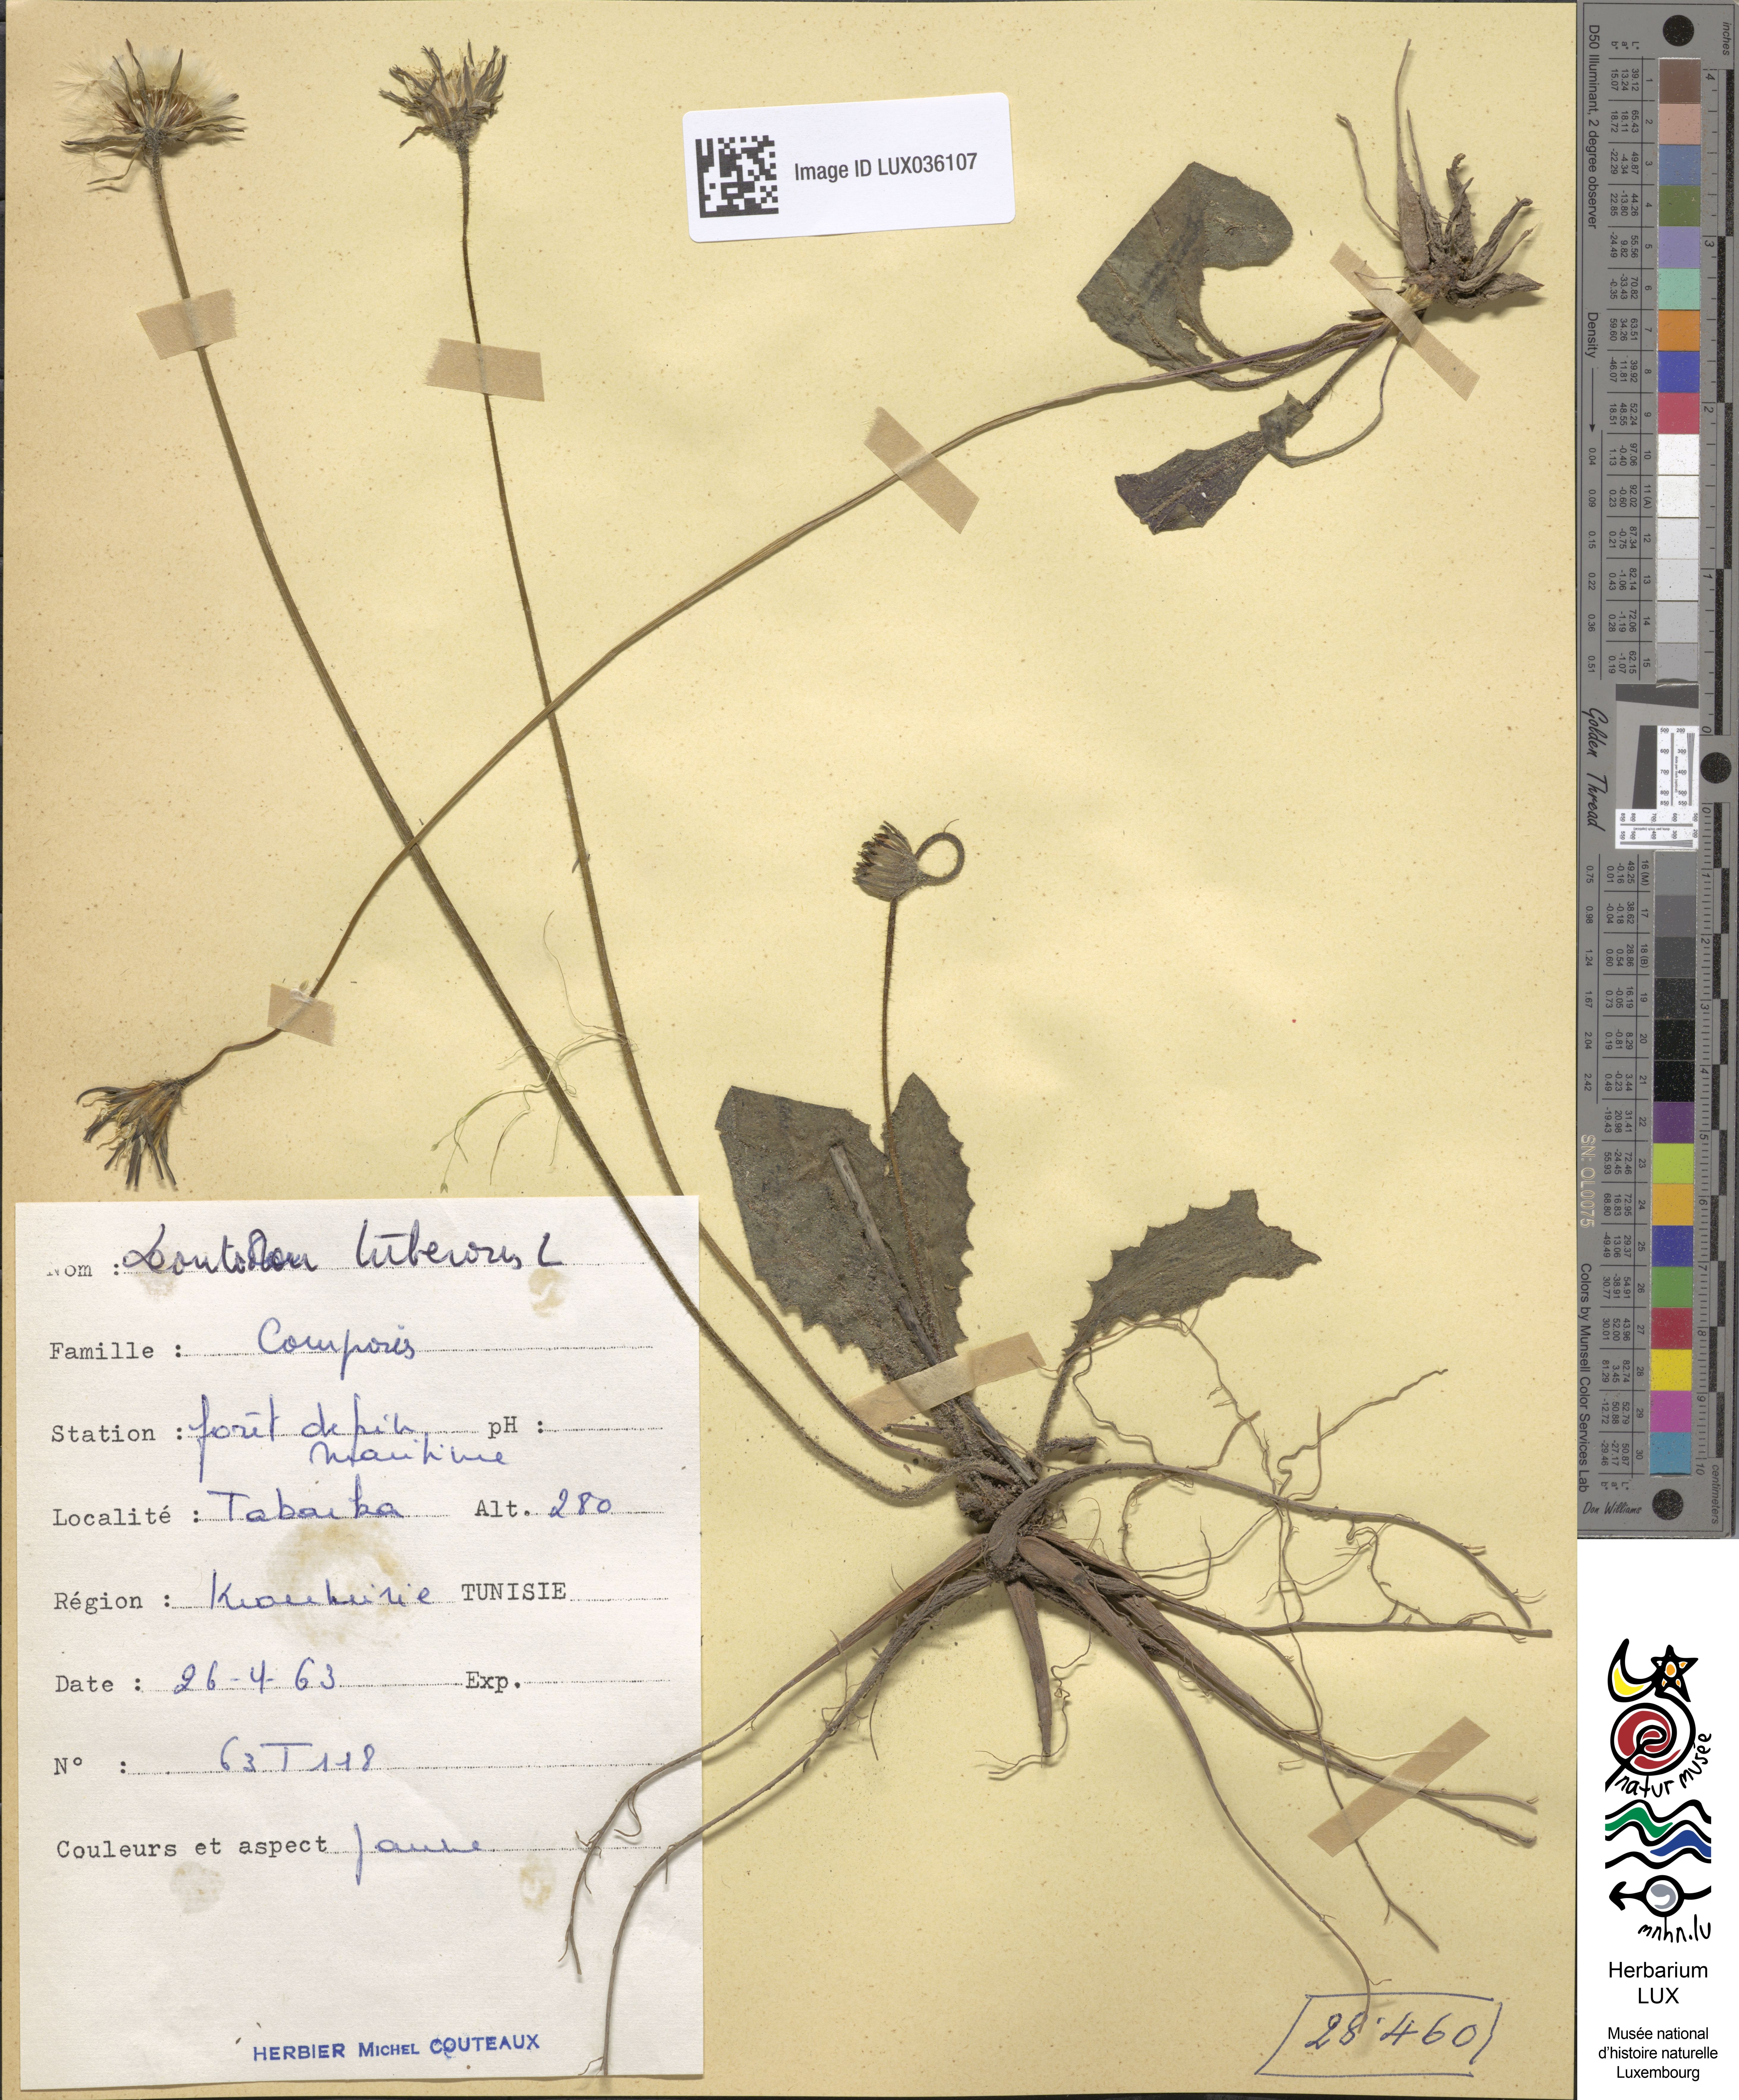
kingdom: Plantae
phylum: Tracheophyta
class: Magnoliopsida
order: Asterales
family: Asteraceae
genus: Thrincia
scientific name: Thrincia tuberosa
